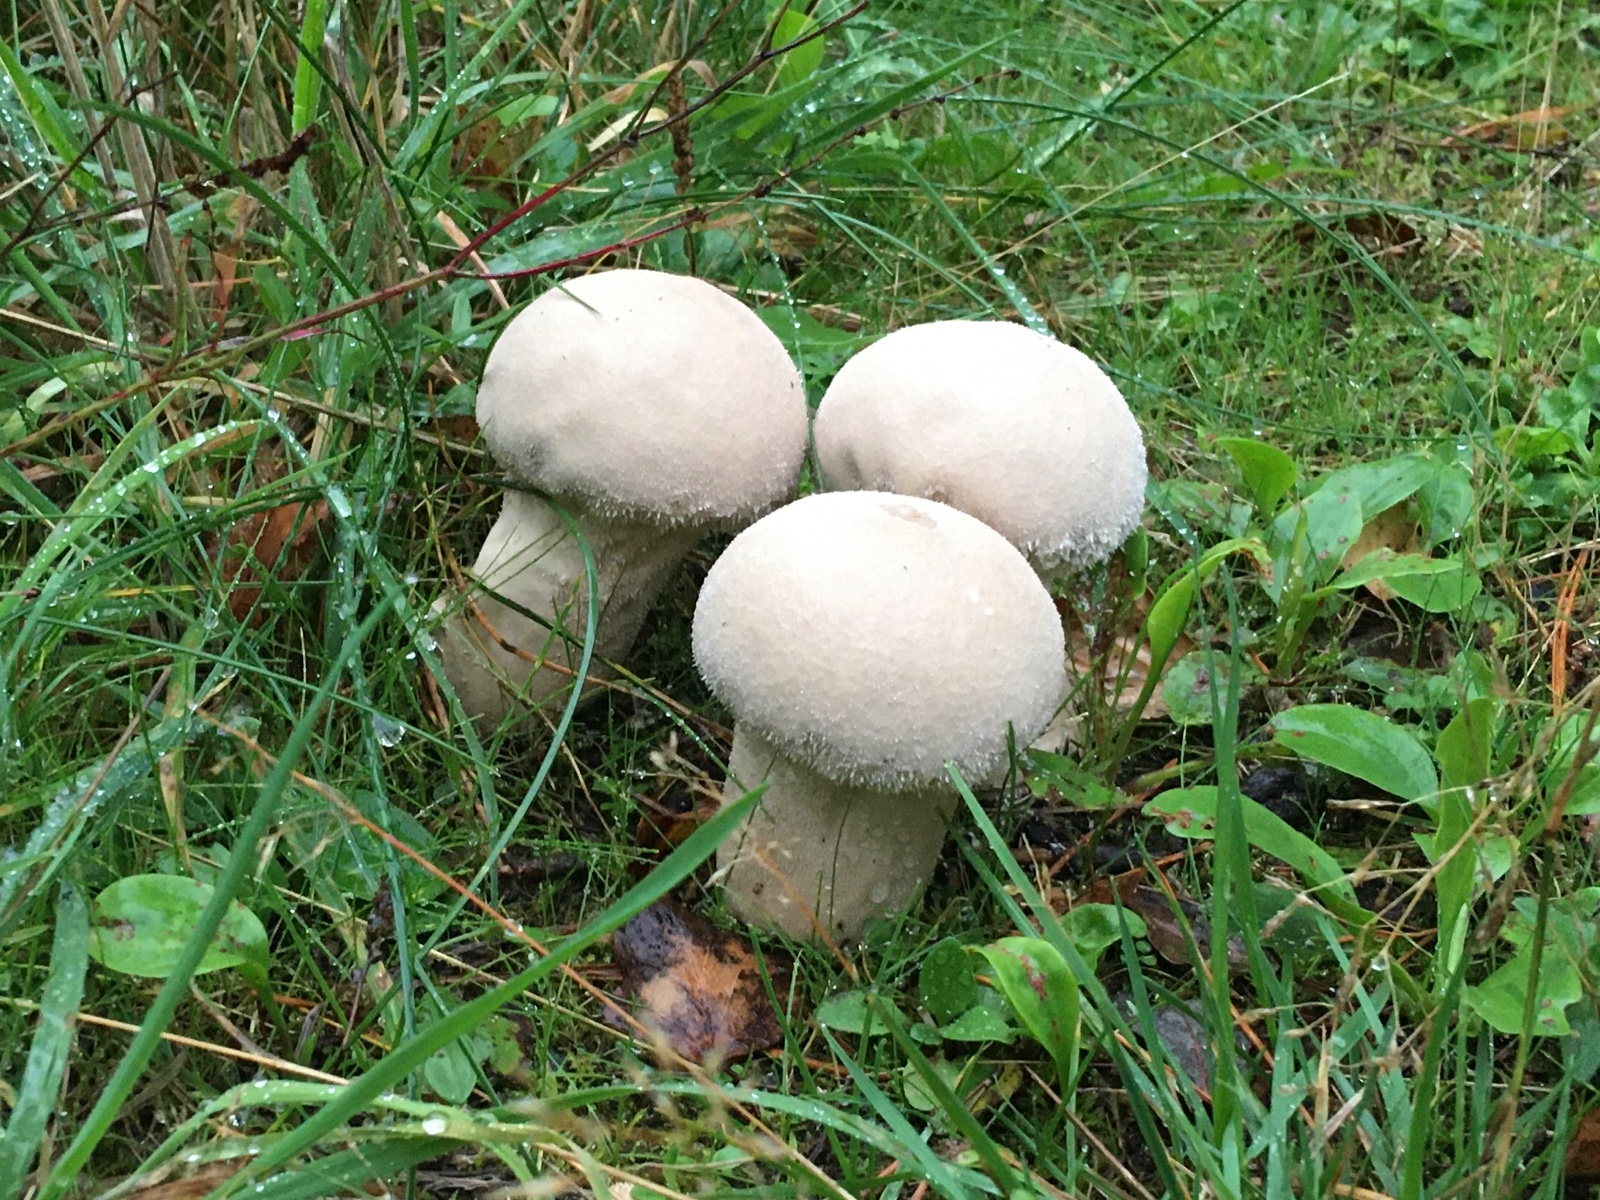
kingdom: Fungi
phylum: Basidiomycota
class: Agaricomycetes
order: Agaricales
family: Lycoperdaceae
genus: Lycoperdon
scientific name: Lycoperdon excipuliforme
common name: højstokket støvbold
